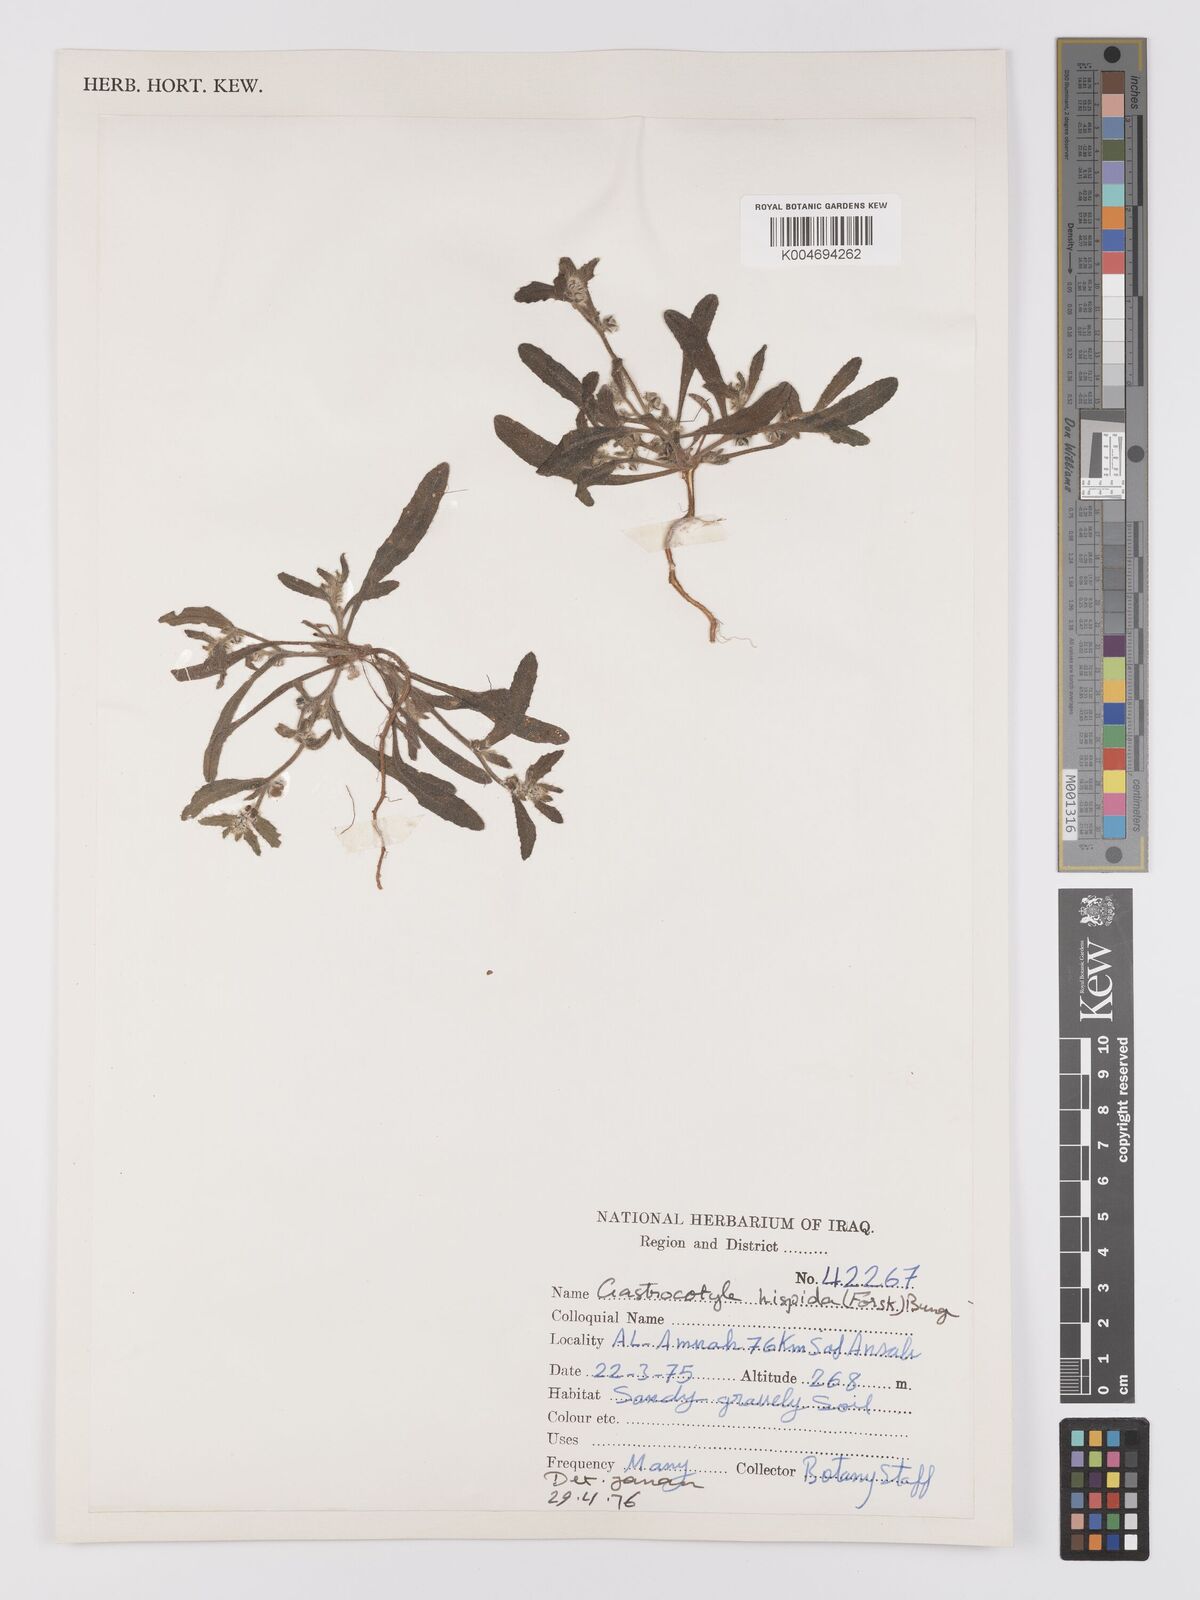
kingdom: Plantae
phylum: Tracheophyta
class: Magnoliopsida
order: Boraginales
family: Boraginaceae
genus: Gastrocotyle
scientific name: Gastrocotyle hispida
